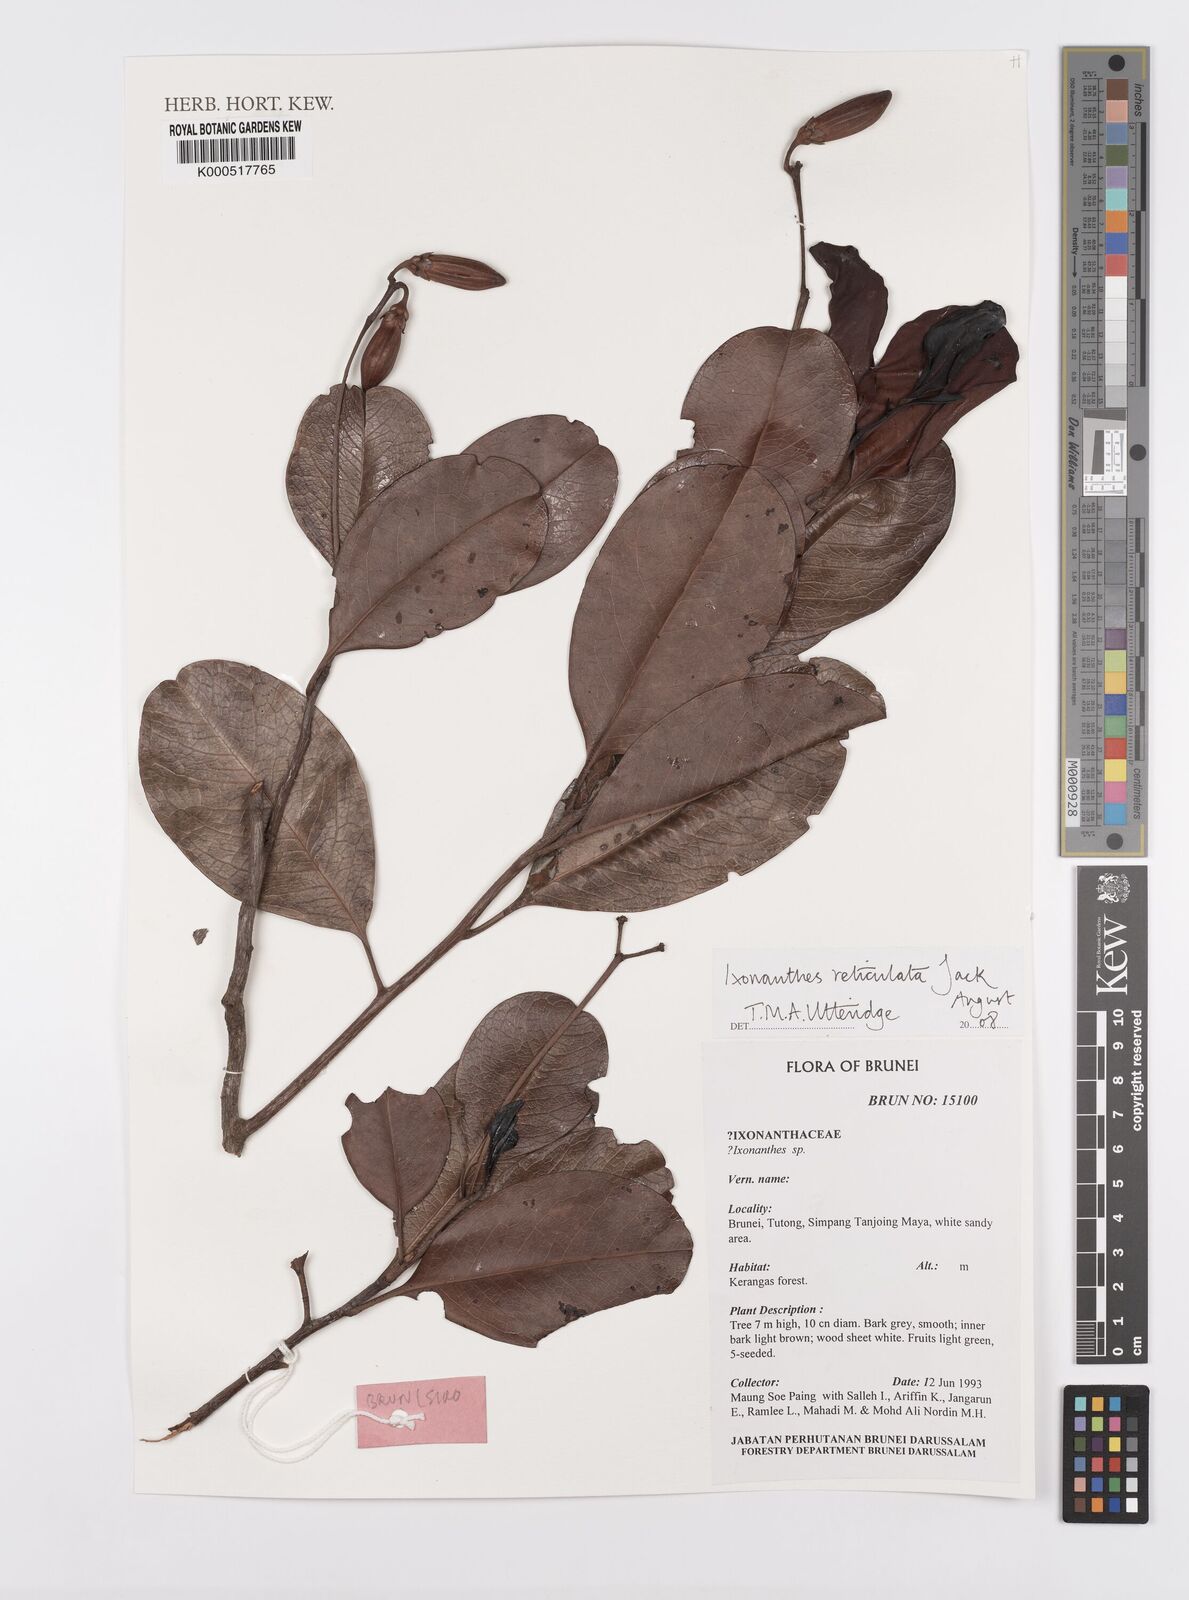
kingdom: Plantae
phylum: Tracheophyta
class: Magnoliopsida
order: Malpighiales
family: Ixonanthaceae
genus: Ixonanthes
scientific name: Ixonanthes reticulata
